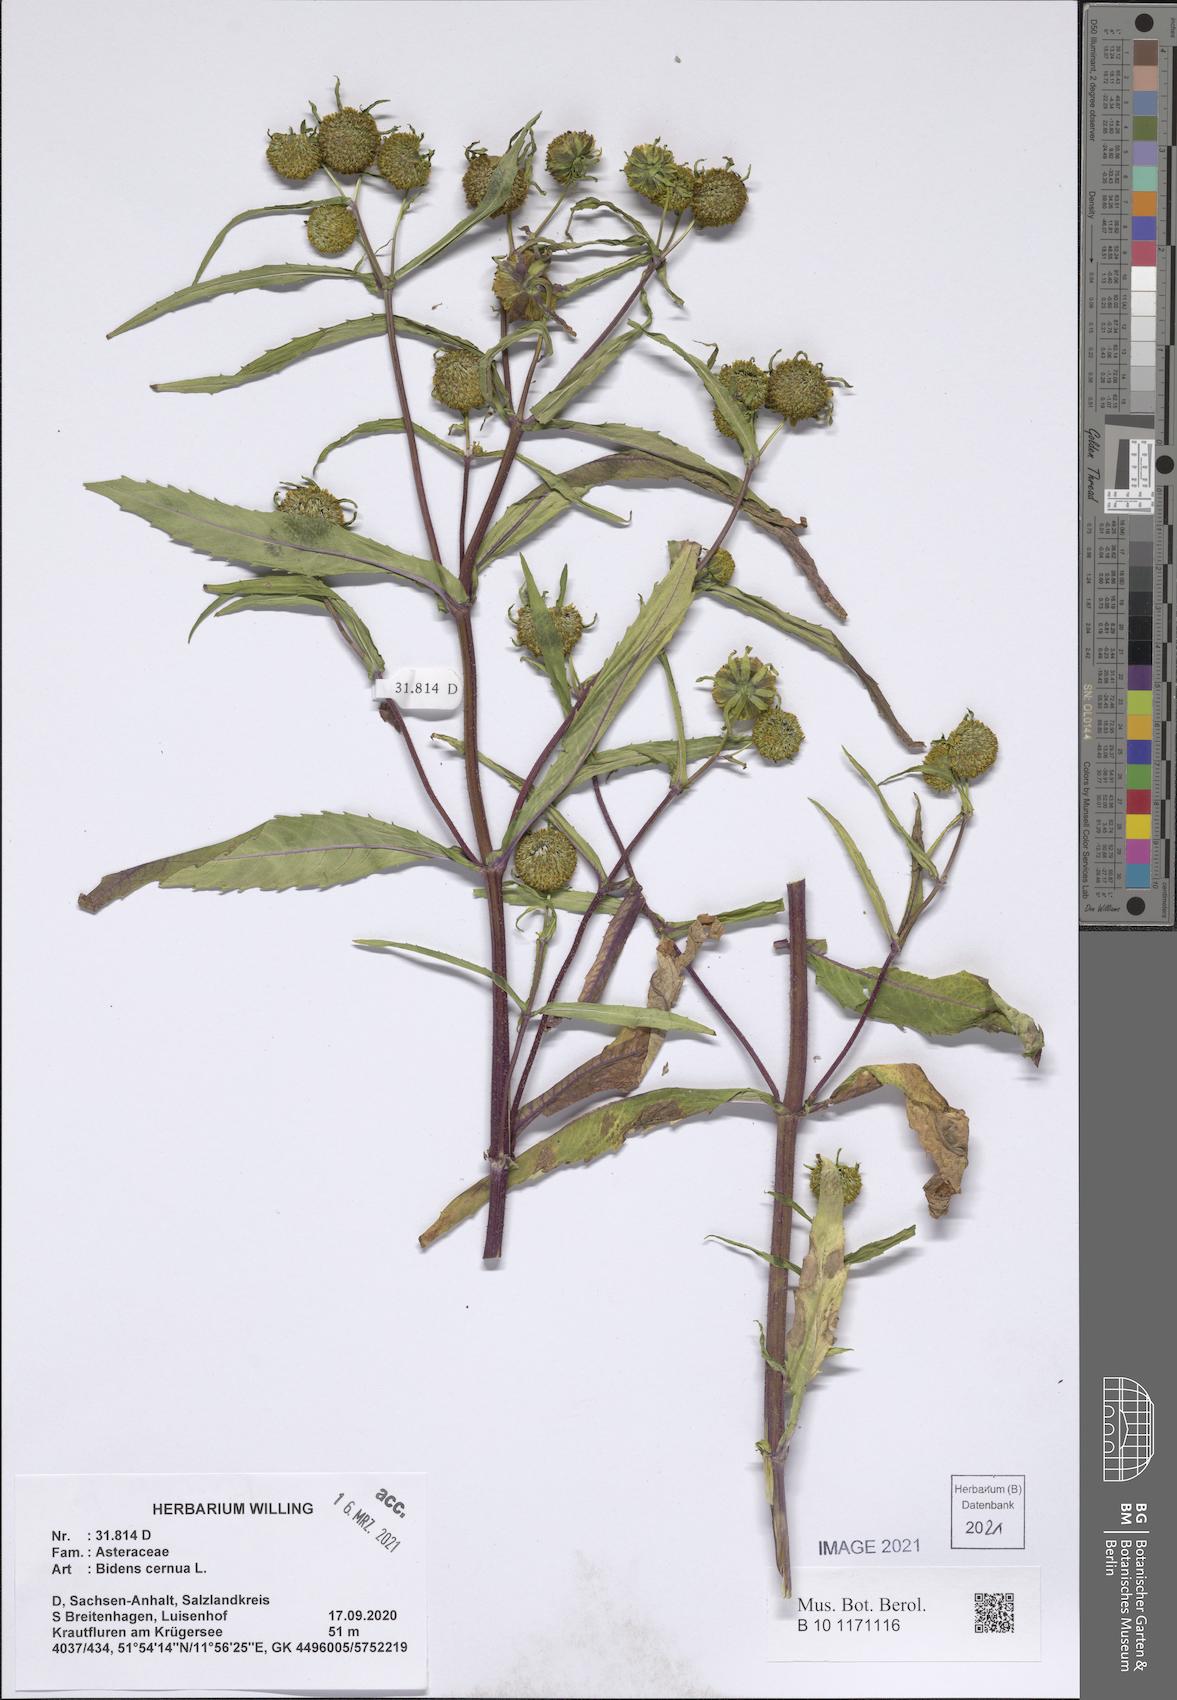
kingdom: Plantae
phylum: Tracheophyta
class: Magnoliopsida
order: Asterales
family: Asteraceae
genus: Bidens
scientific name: Bidens cernua
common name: Nodding bur-marigold
